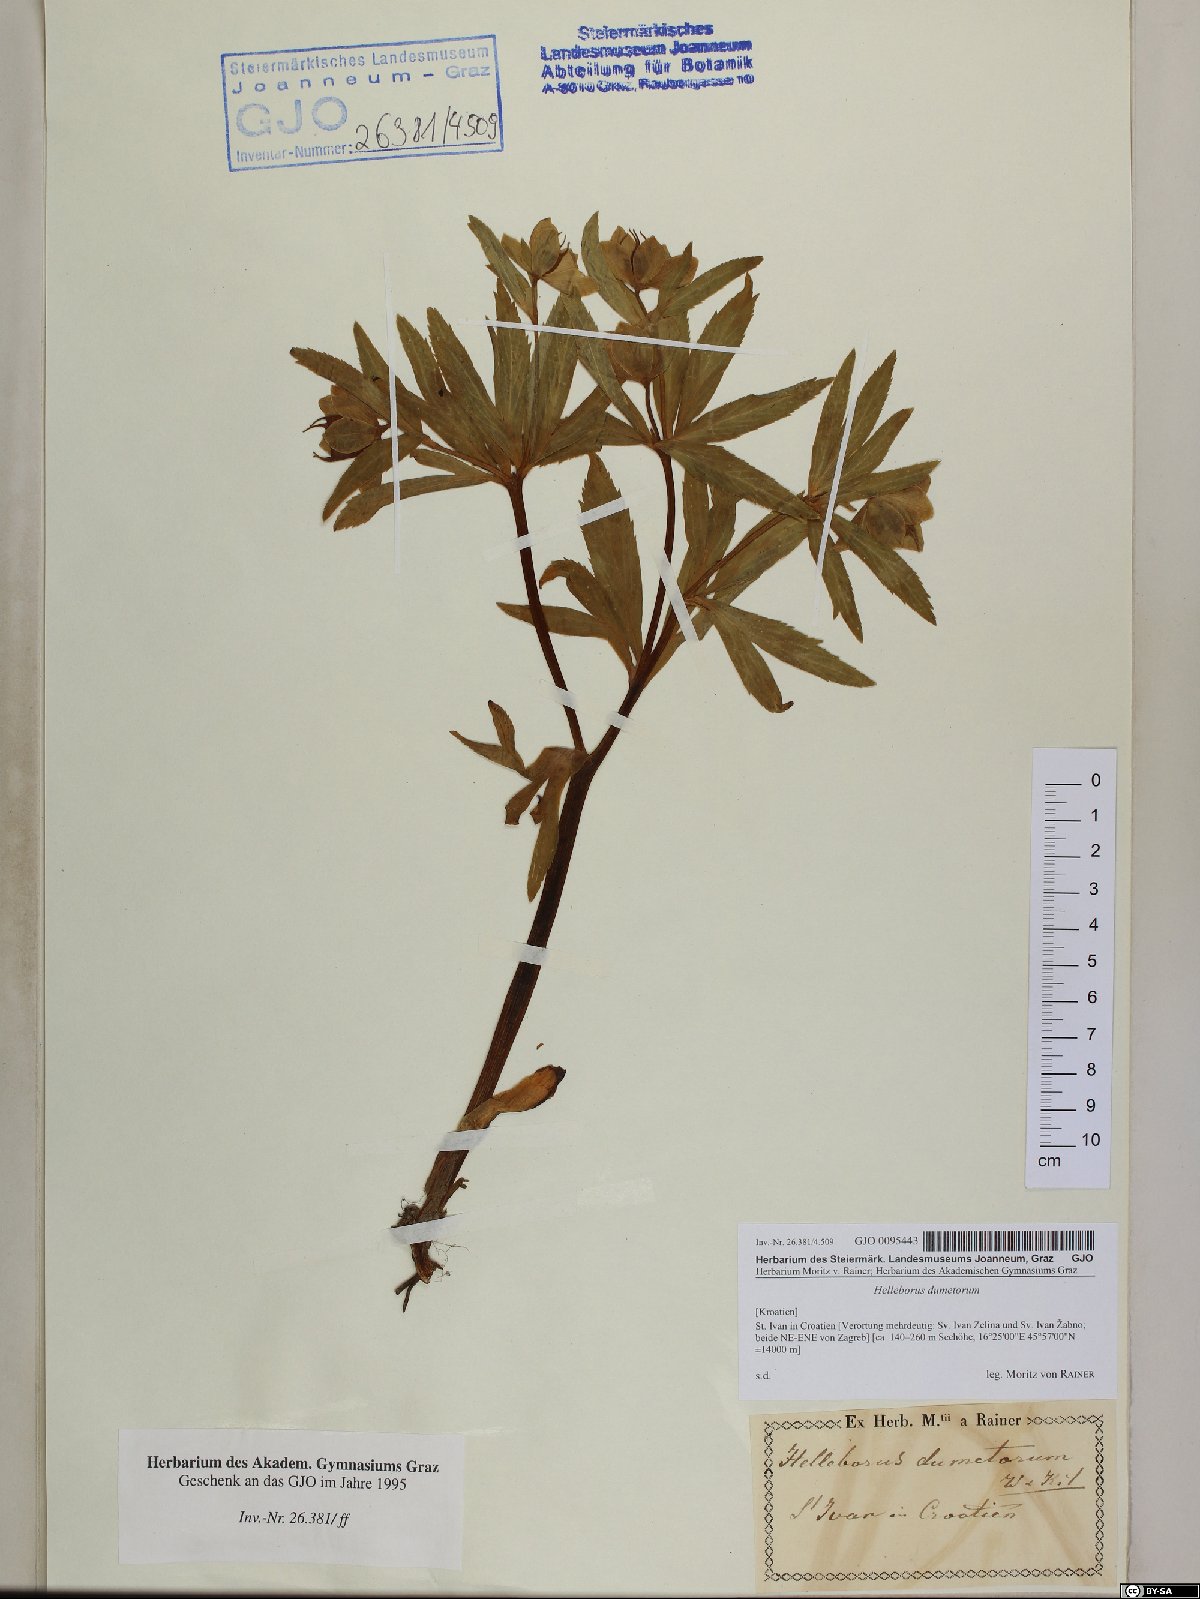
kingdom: Plantae
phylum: Tracheophyta
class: Magnoliopsida
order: Ranunculales
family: Ranunculaceae
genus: Helleborus
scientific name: Helleborus dumetorum
